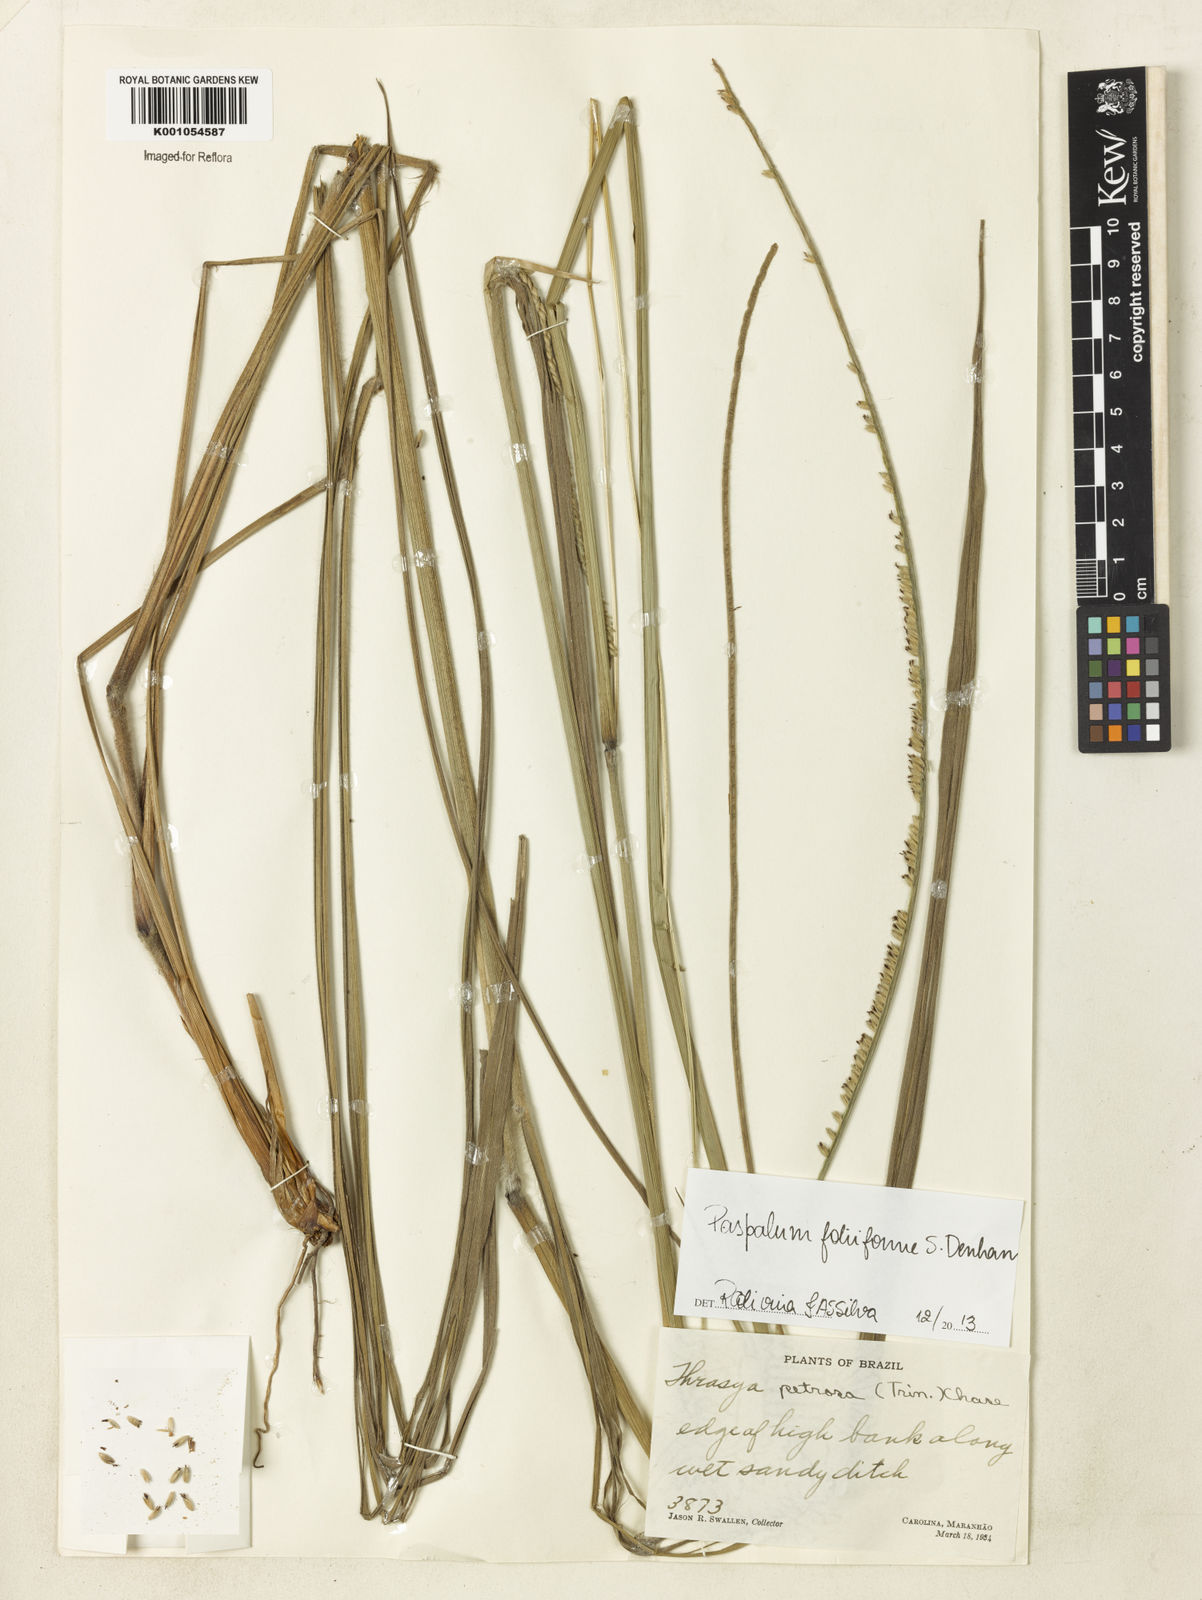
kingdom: Plantae
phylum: Tracheophyta
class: Liliopsida
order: Poales
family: Poaceae
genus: Paspalum
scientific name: Paspalum foliiforme
